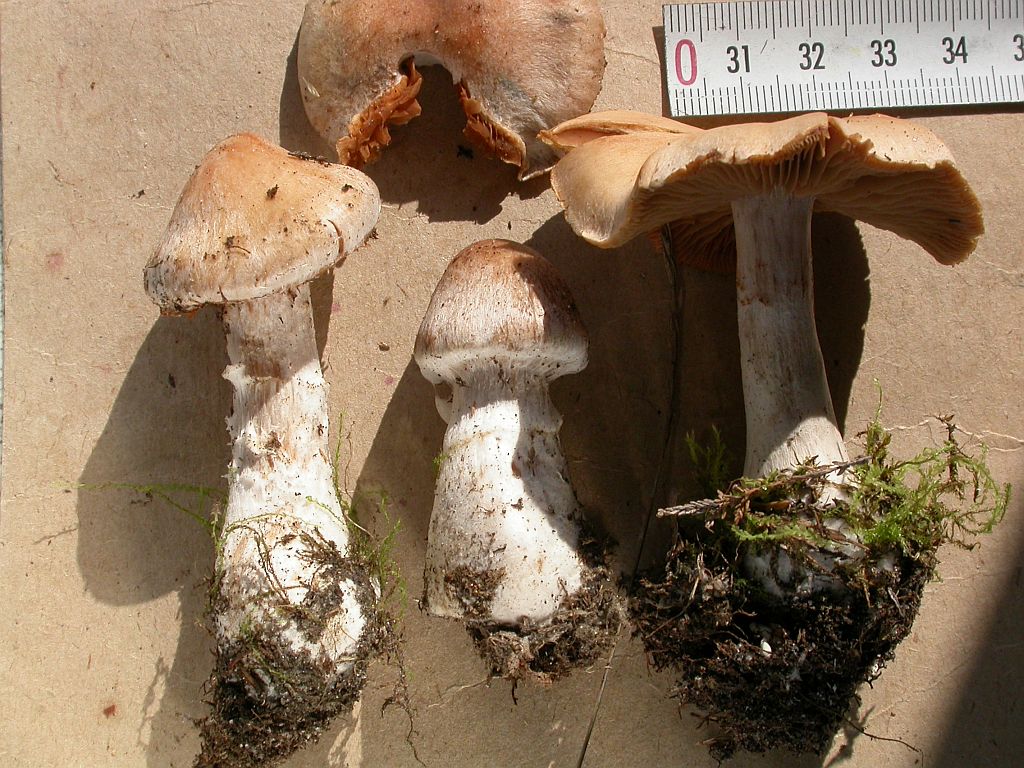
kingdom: Fungi
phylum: Basidiomycota
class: Agaricomycetes
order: Agaricales
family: Cortinariaceae
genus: Cortinarius
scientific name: Cortinarius hydrotelamonioides
